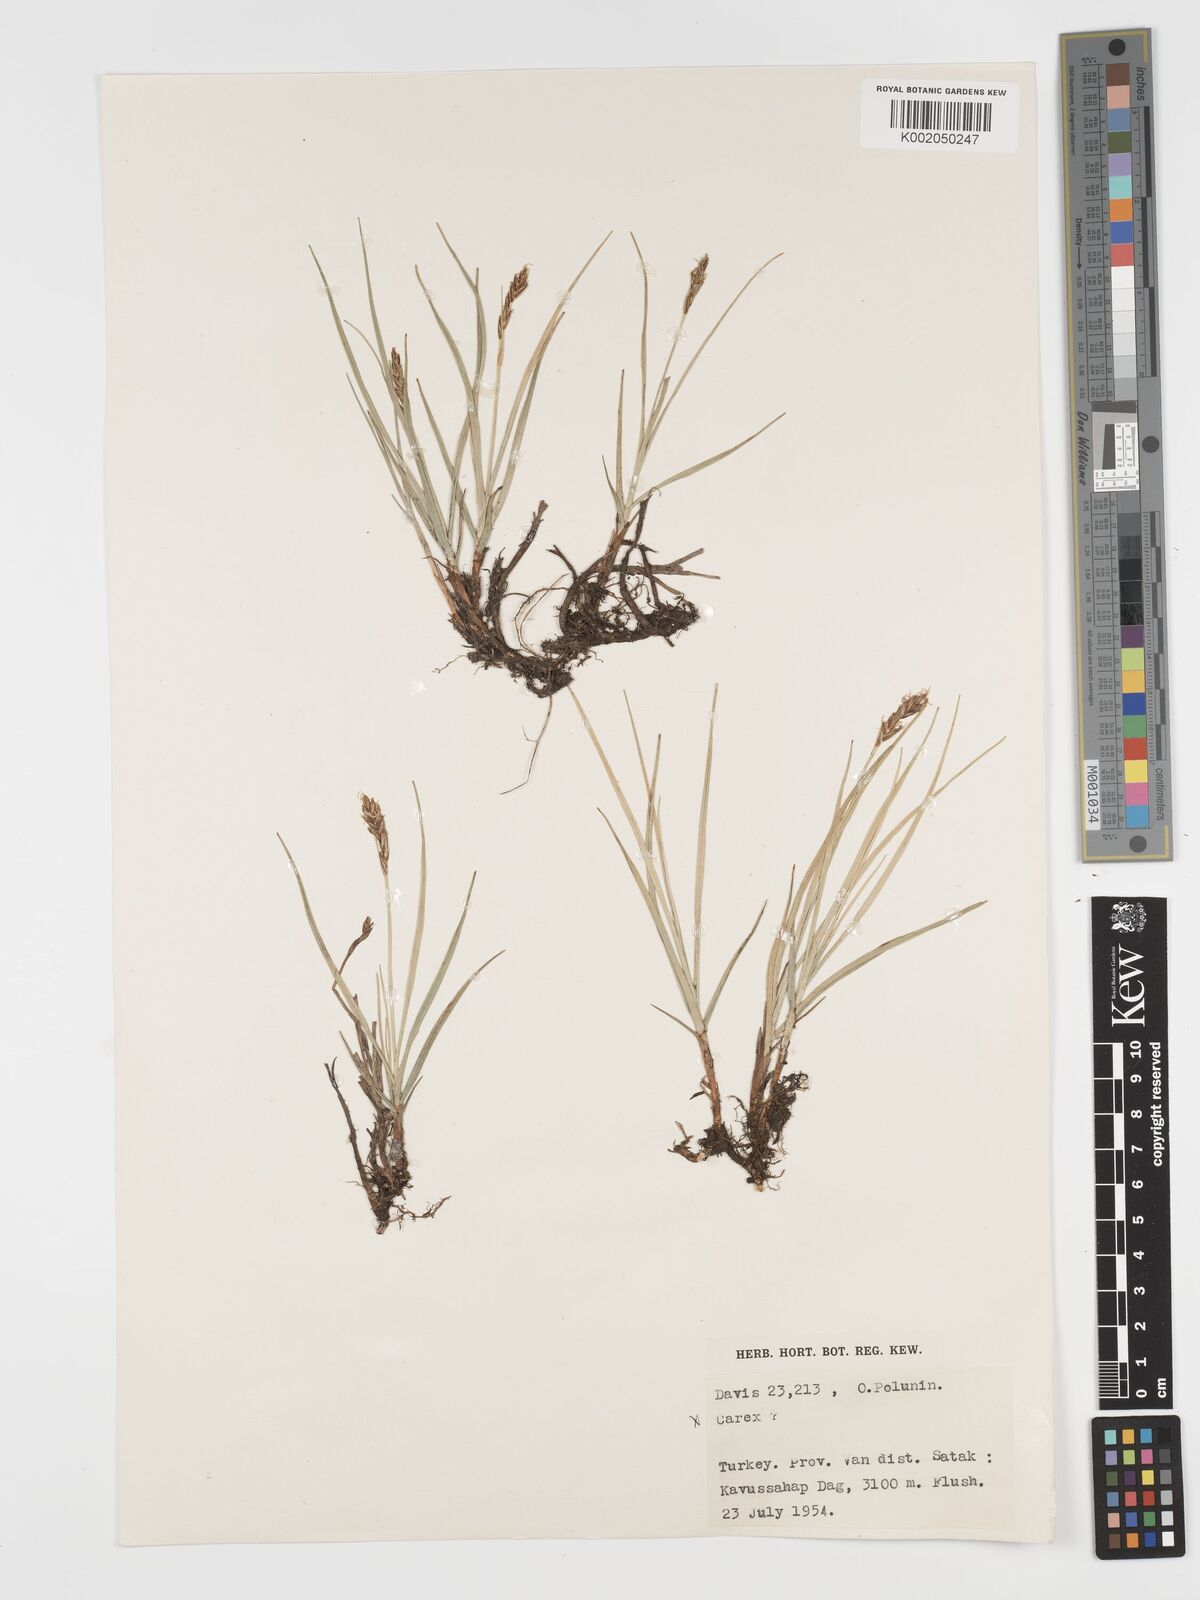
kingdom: Plantae
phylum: Tracheophyta
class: Liliopsida
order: Poales
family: Cyperaceae
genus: Blysmus
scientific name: Blysmus compressus
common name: Flat-sedge
